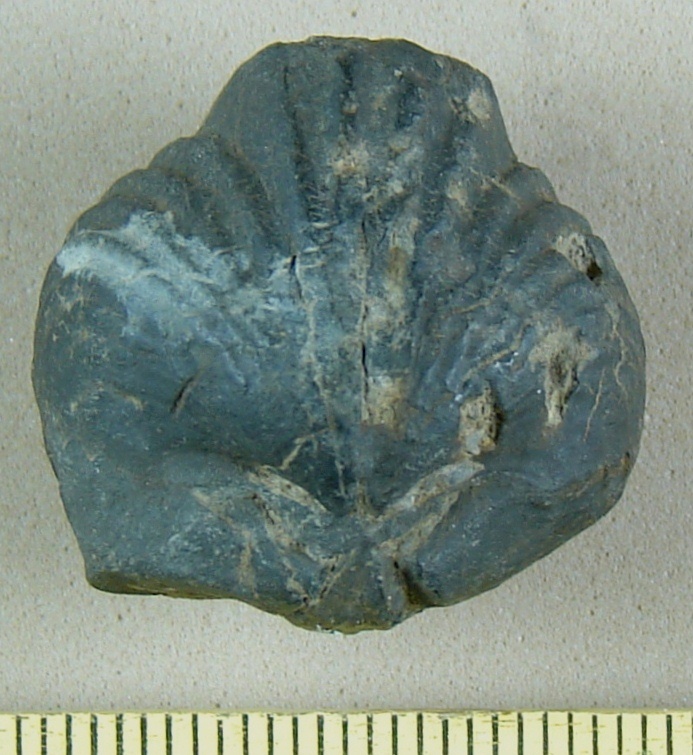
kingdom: Animalia
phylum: Brachiopoda
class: Rhynchonellata
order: Rhynchonellida
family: Trigonirhynchiidae
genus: Oligoptycherhynchus
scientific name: Oligoptycherhynchus
